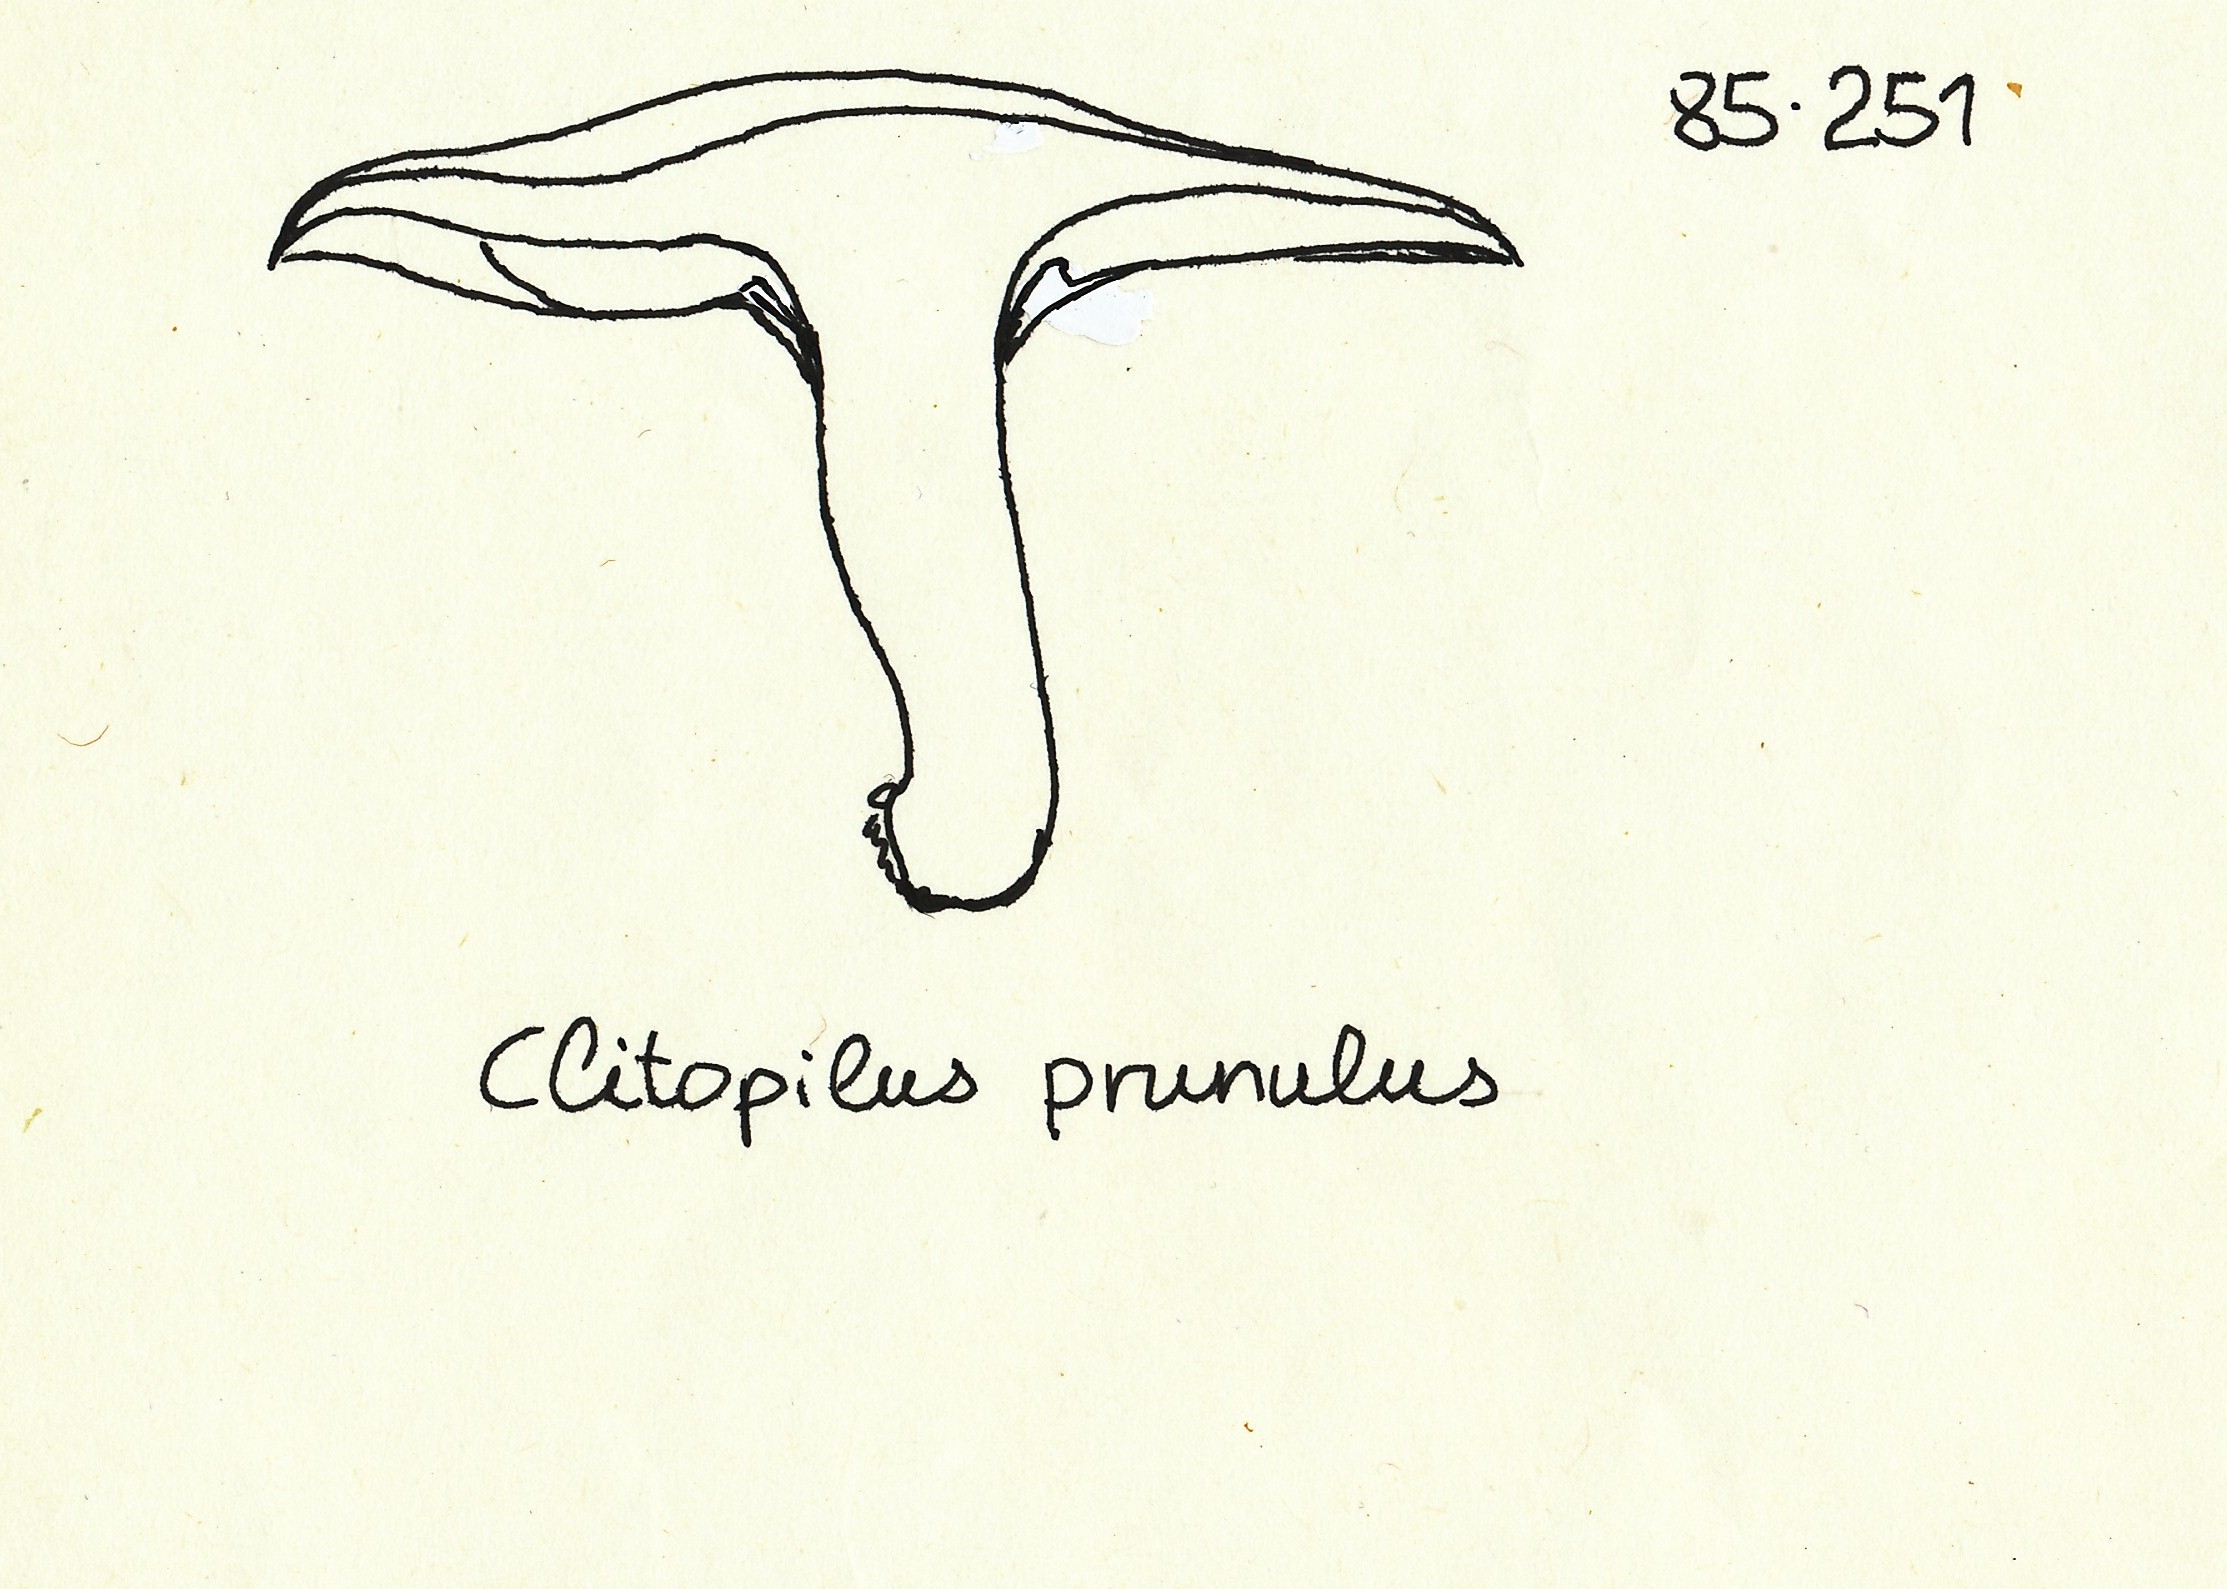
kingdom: Fungi
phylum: Basidiomycota
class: Agaricomycetes
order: Agaricales
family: Entolomataceae
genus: Clitopilus
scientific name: Clitopilus prunulus
